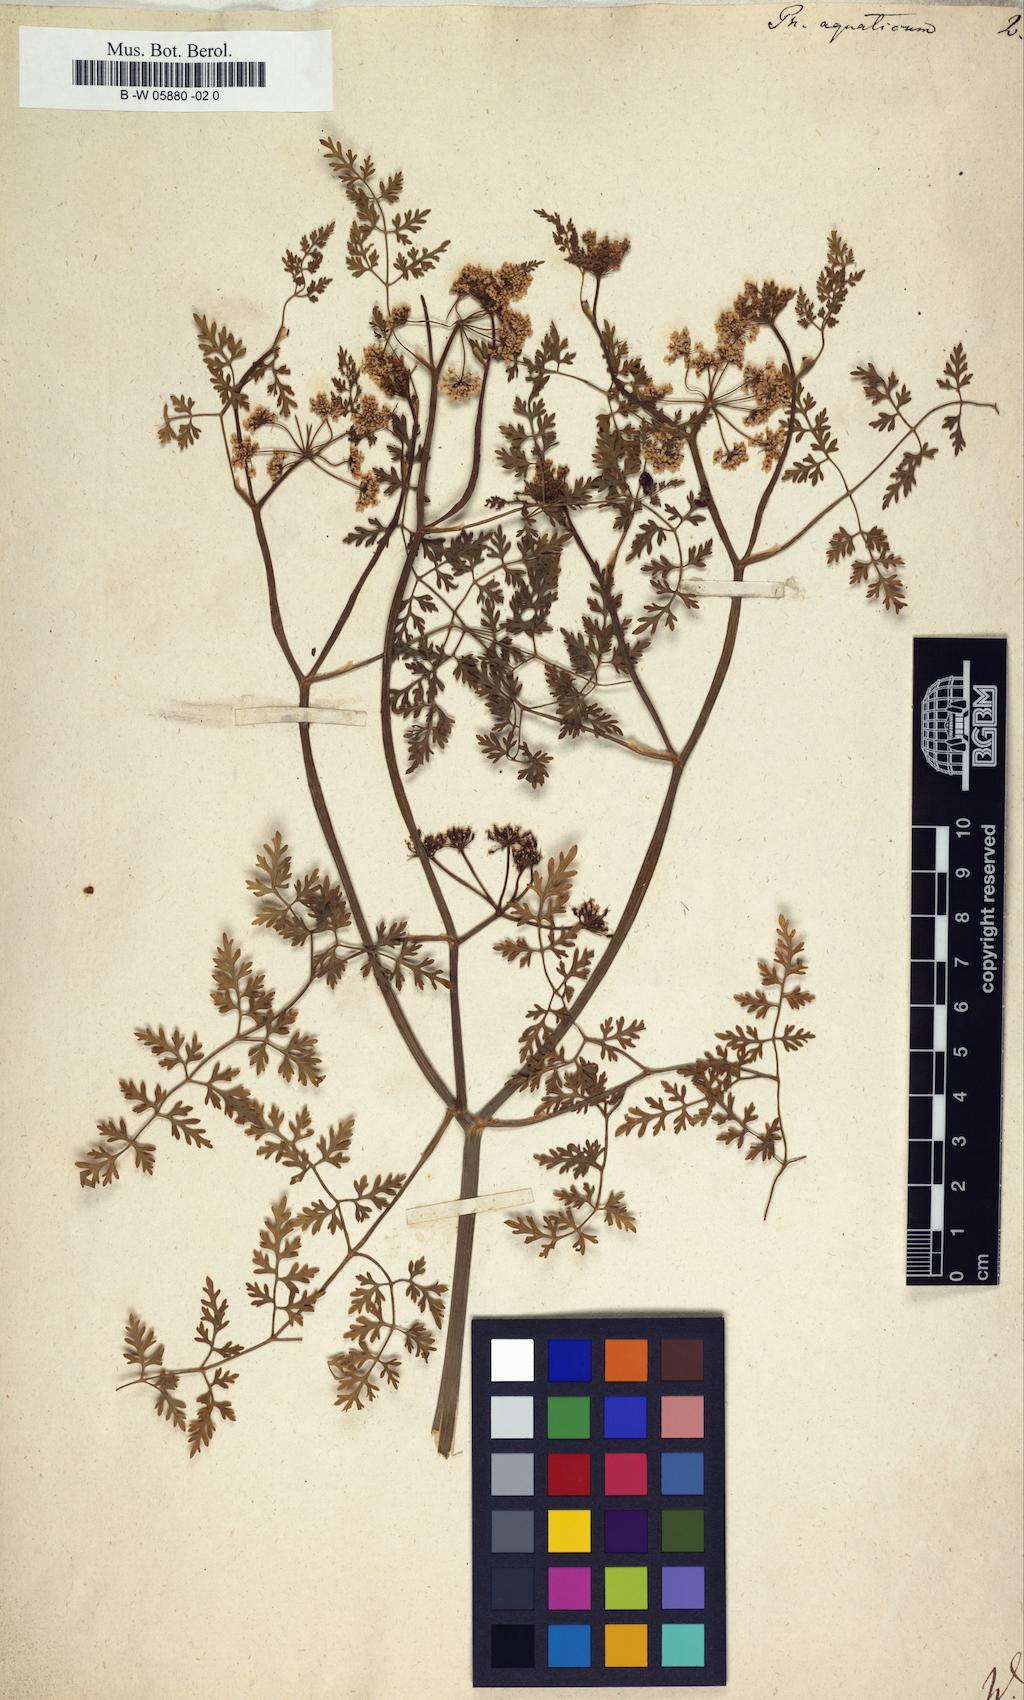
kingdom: Plantae
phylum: Tracheophyta
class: Magnoliopsida
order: Apiales
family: Apiaceae
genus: Oenanthe
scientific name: Oenanthe aquatica
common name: Fine-leaved water-dropwort
